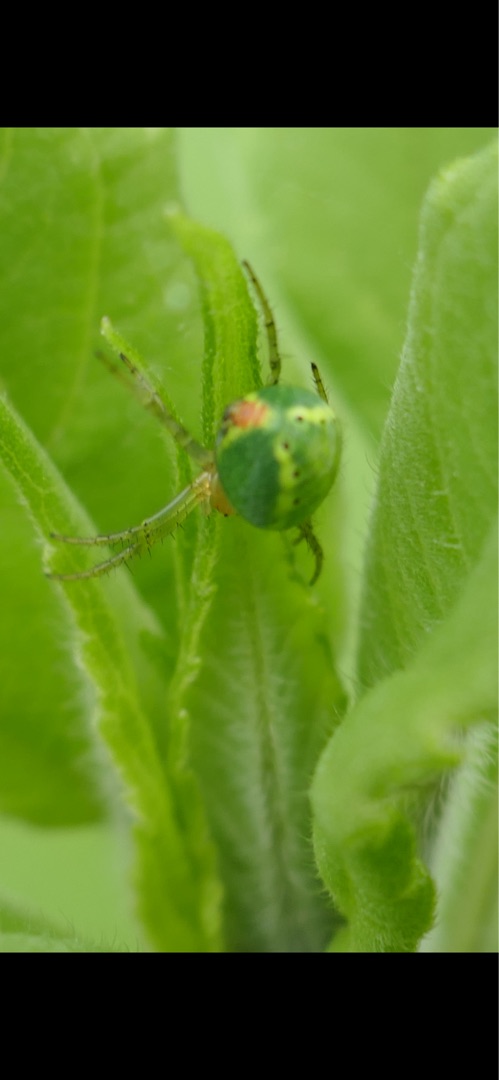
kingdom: Animalia
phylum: Arthropoda
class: Arachnida
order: Araneae
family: Araneidae
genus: Araniella
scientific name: Araniella
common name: Agurkeedderkopslægten
